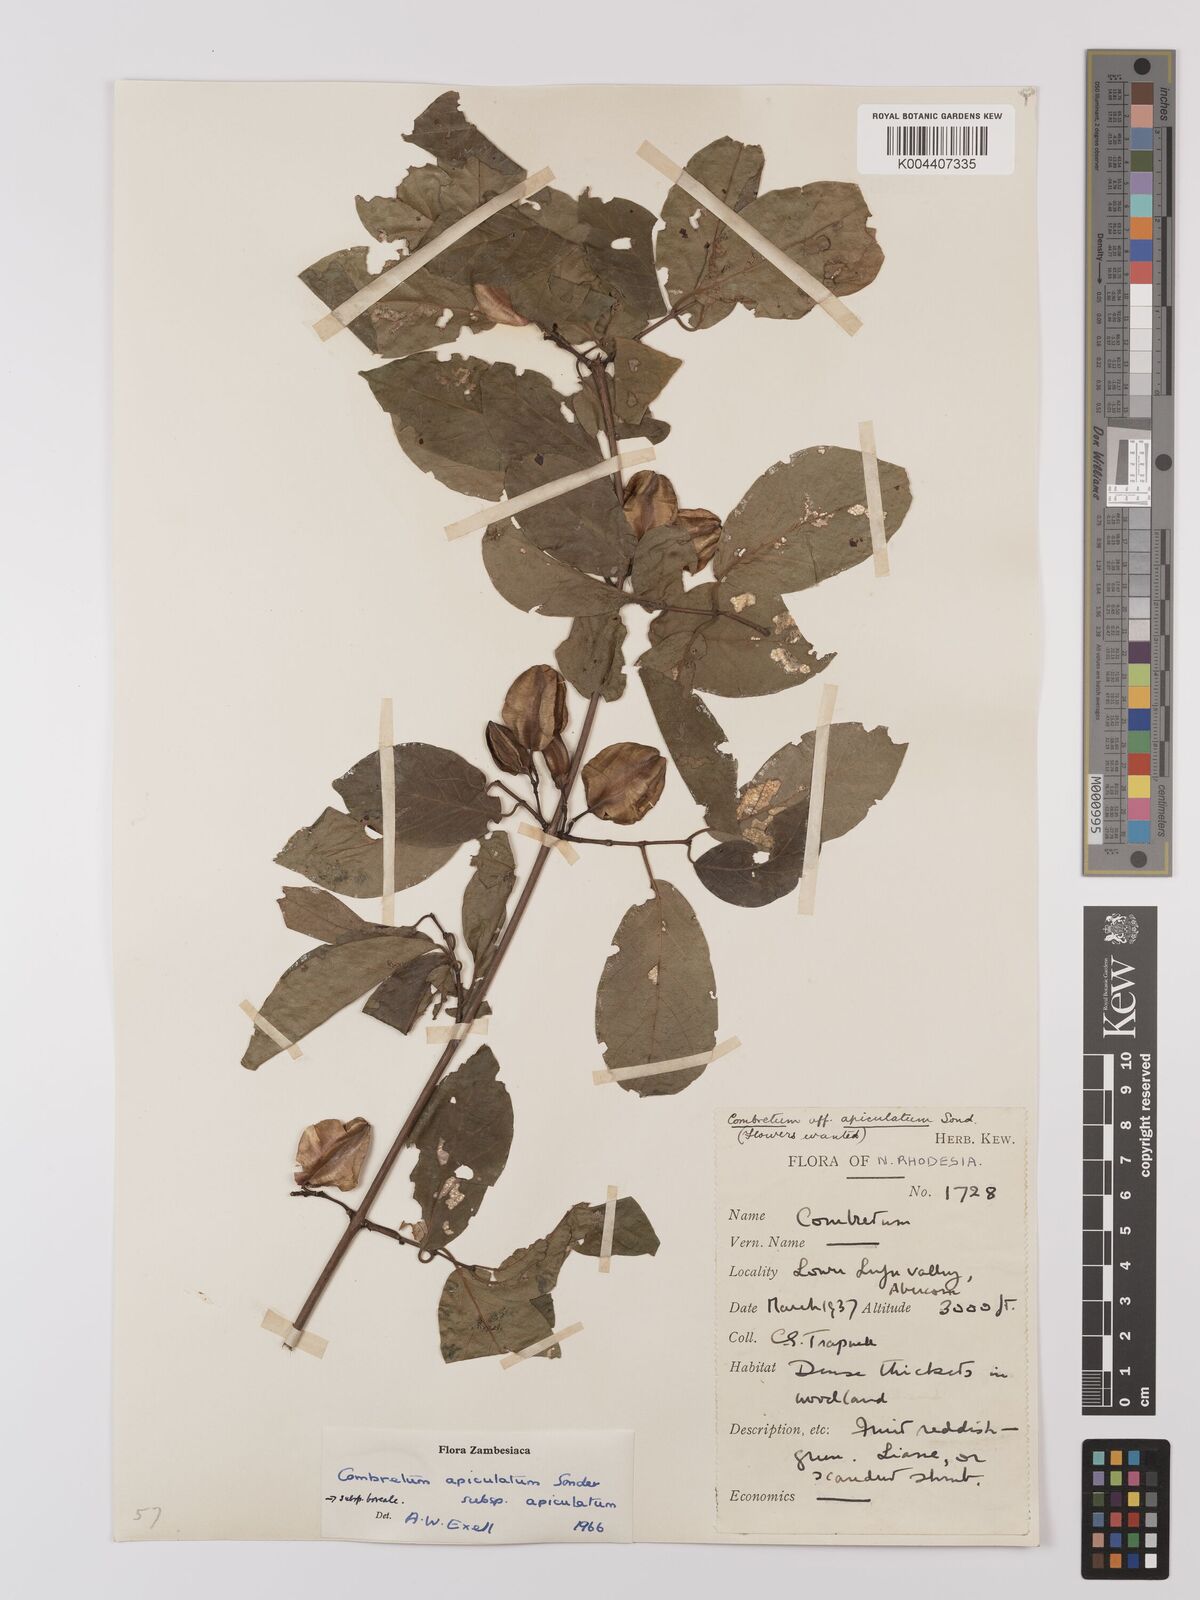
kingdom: Plantae
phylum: Tracheophyta
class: Magnoliopsida
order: Myrtales
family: Combretaceae
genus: Combretum
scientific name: Combretum apiculatum
